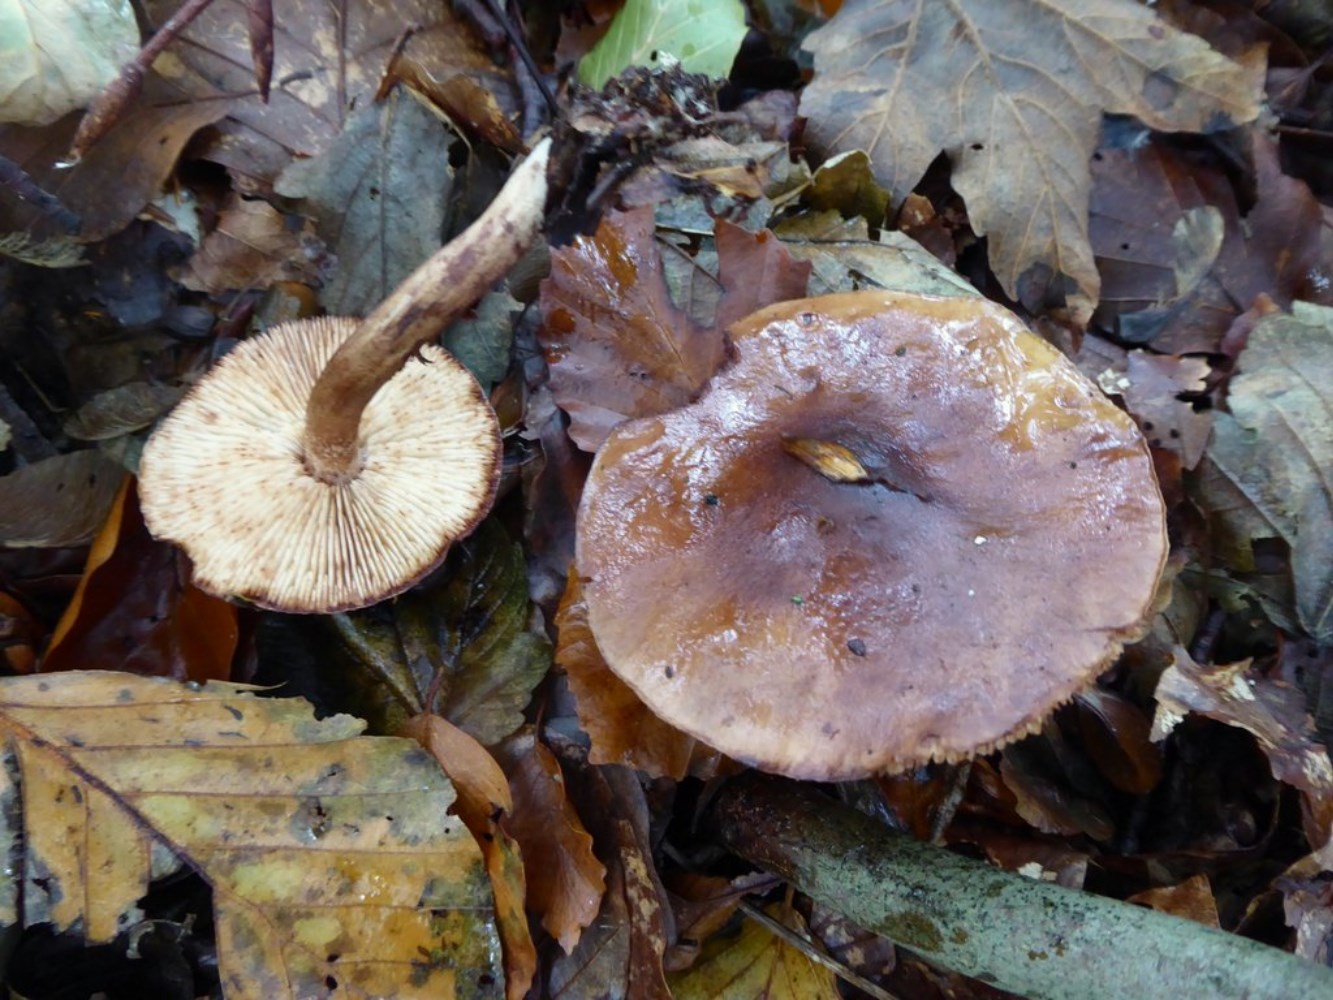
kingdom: Fungi
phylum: Basidiomycota
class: Agaricomycetes
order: Agaricales
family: Tricholomataceae
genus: Tricholoma
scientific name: Tricholoma ustale
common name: sveden ridderhat
